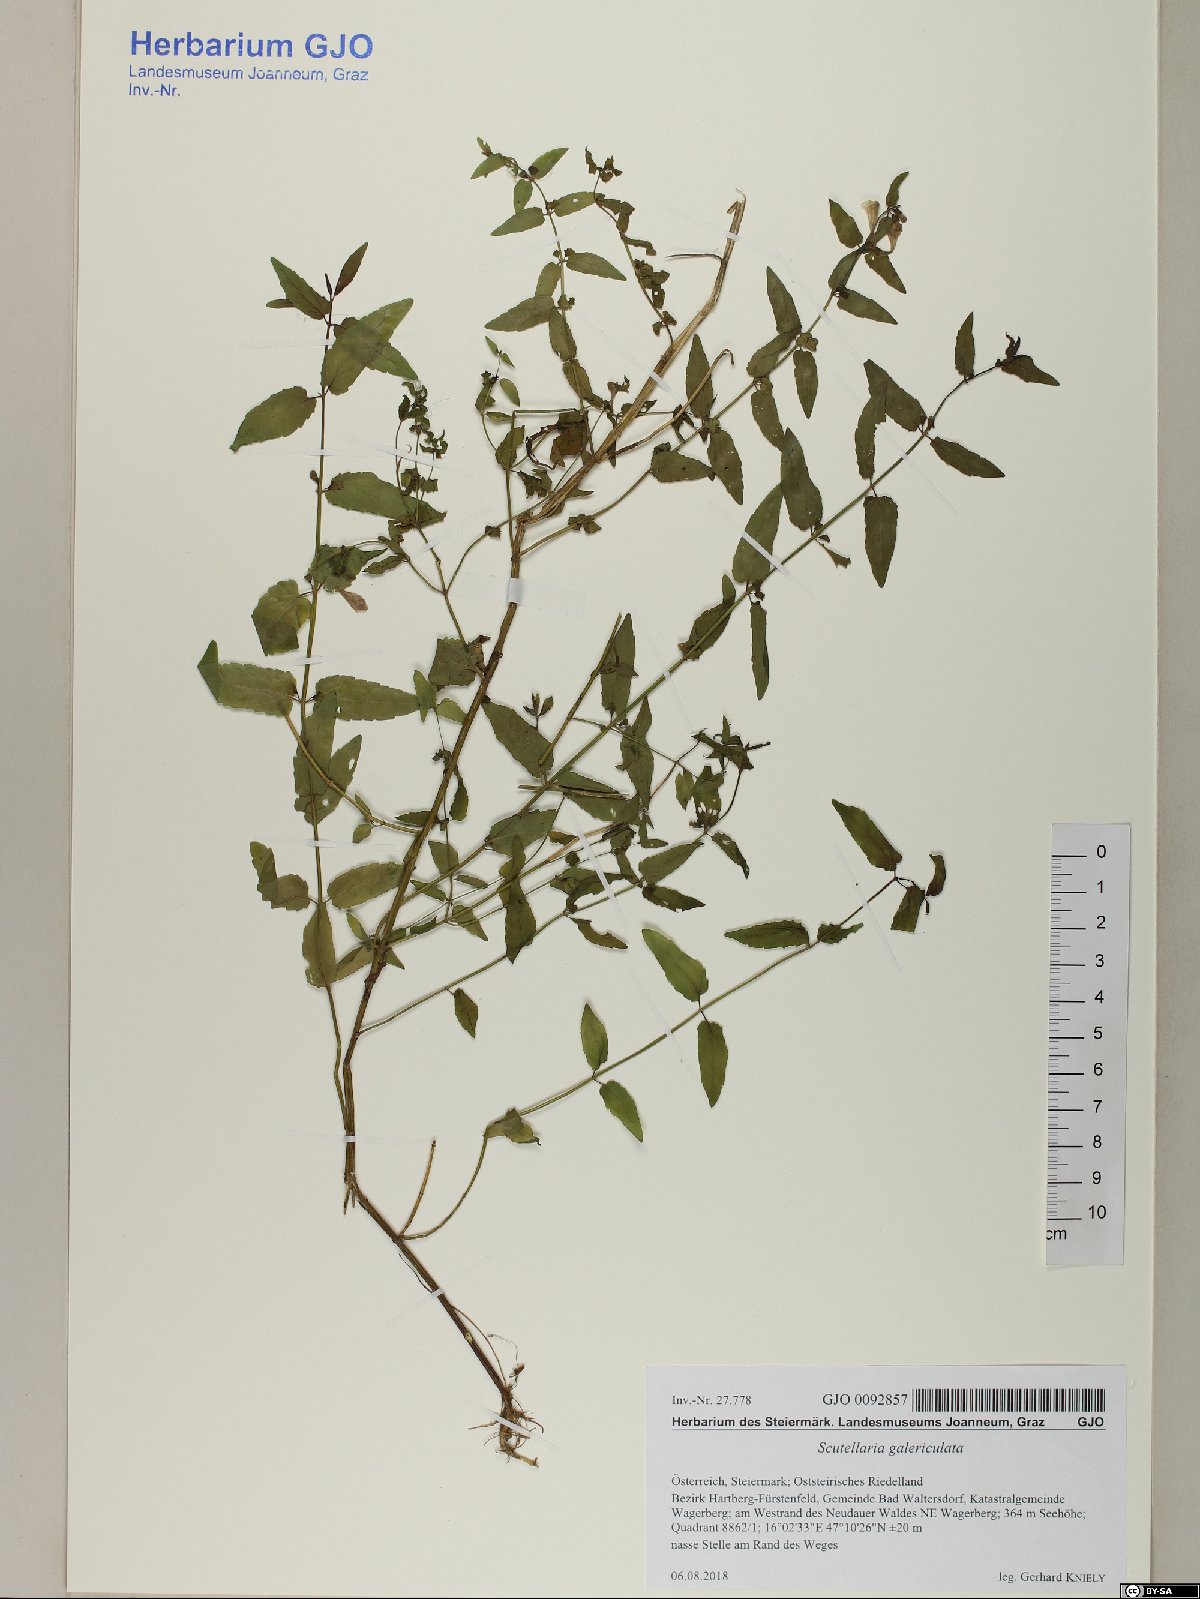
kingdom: Plantae
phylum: Tracheophyta
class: Magnoliopsida
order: Lamiales
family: Lamiaceae
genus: Scutellaria
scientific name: Scutellaria galericulata
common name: Skullcap
